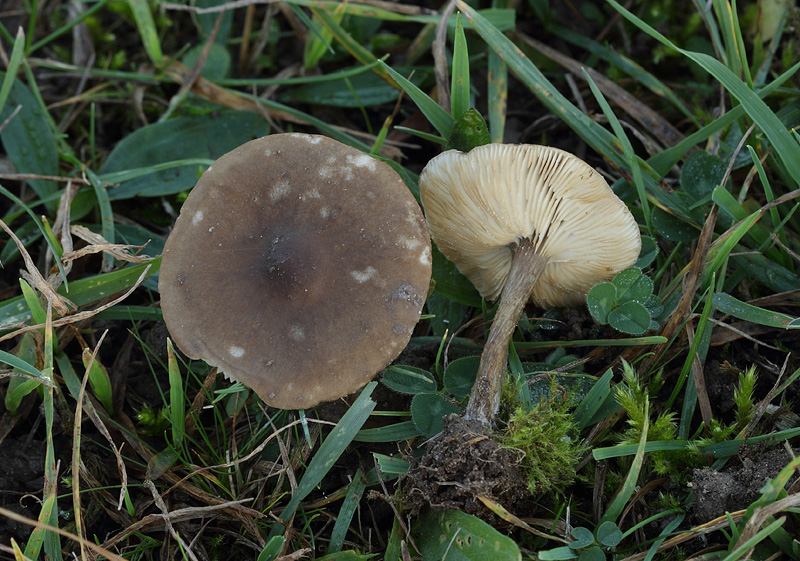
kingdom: Fungi
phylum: Basidiomycota
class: Agaricomycetes
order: Agaricales
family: Tricholomataceae
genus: Melanoleuca
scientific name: Melanoleuca polioleuca
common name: hvidbladet munkehat
